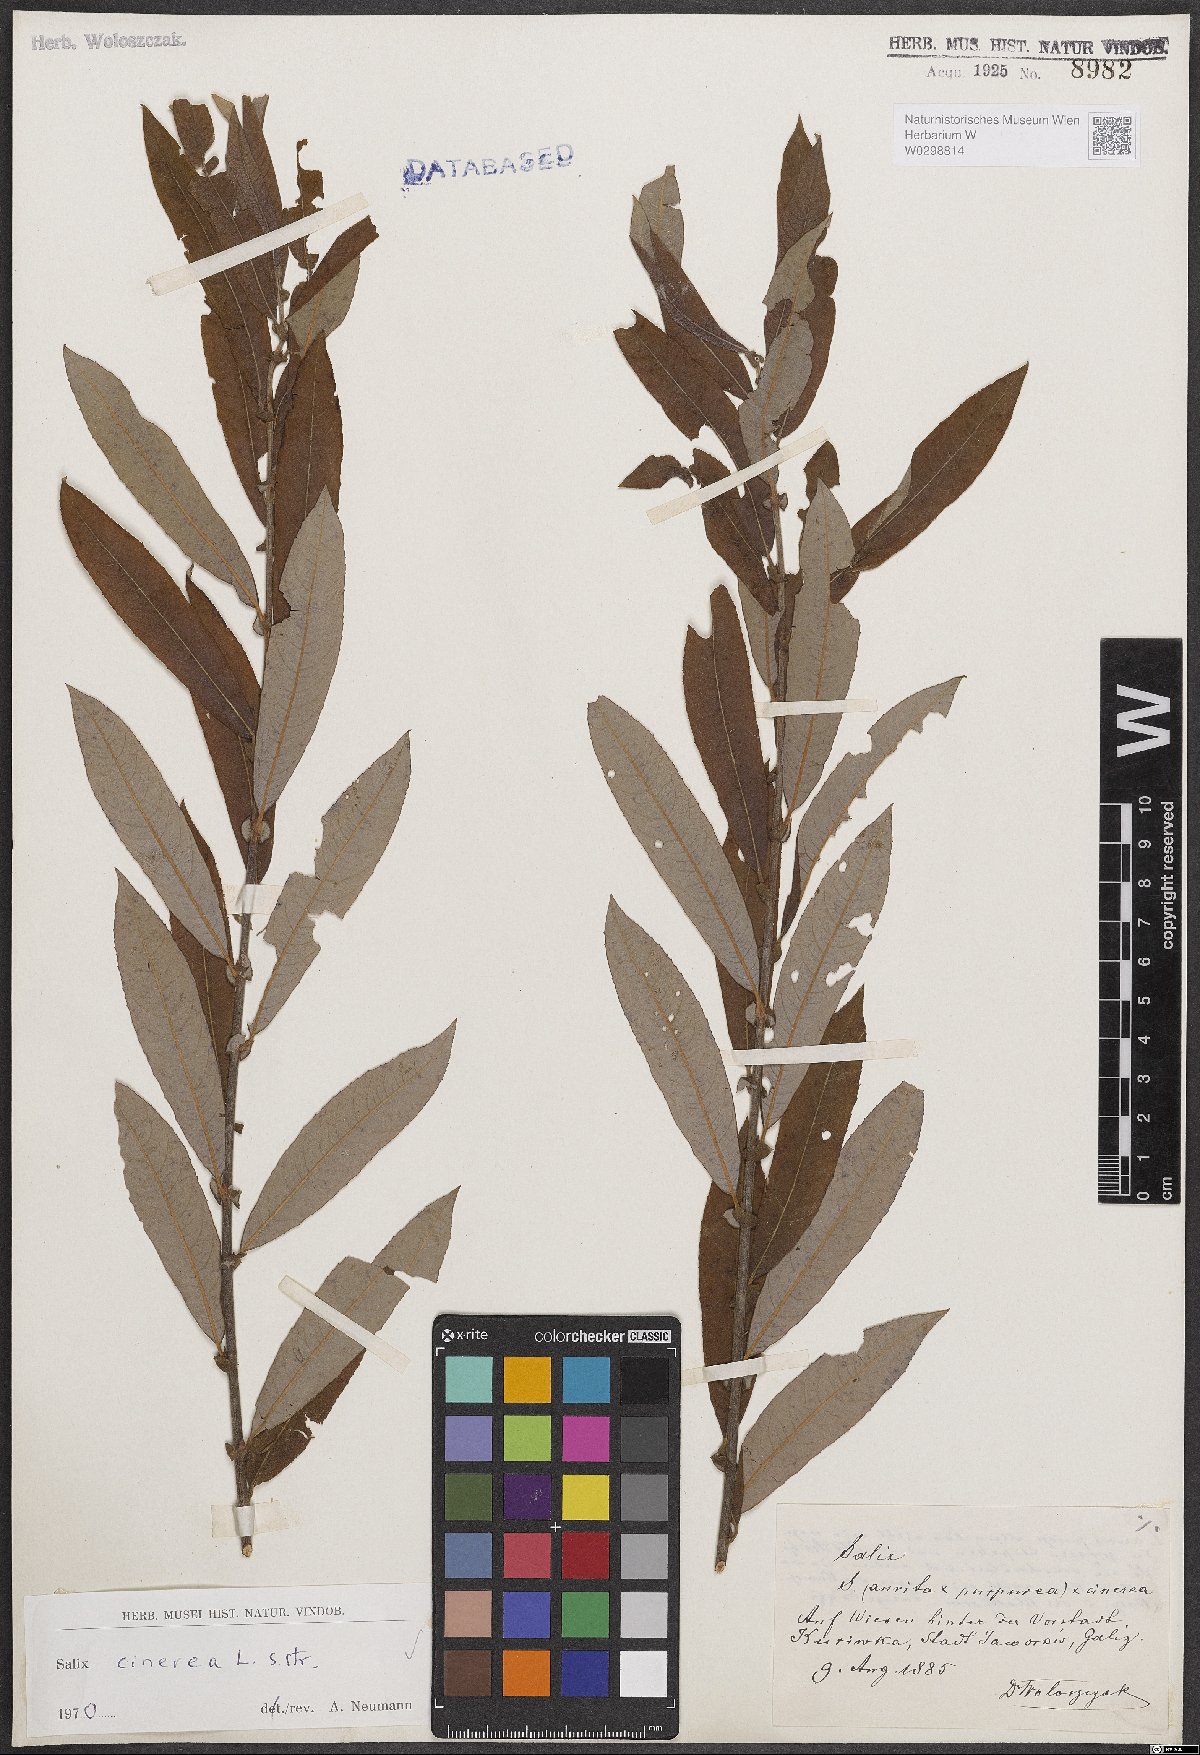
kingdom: Plantae
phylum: Tracheophyta
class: Magnoliopsida
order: Malpighiales
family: Salicaceae
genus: Salix
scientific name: Salix cinerea
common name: Common sallow
